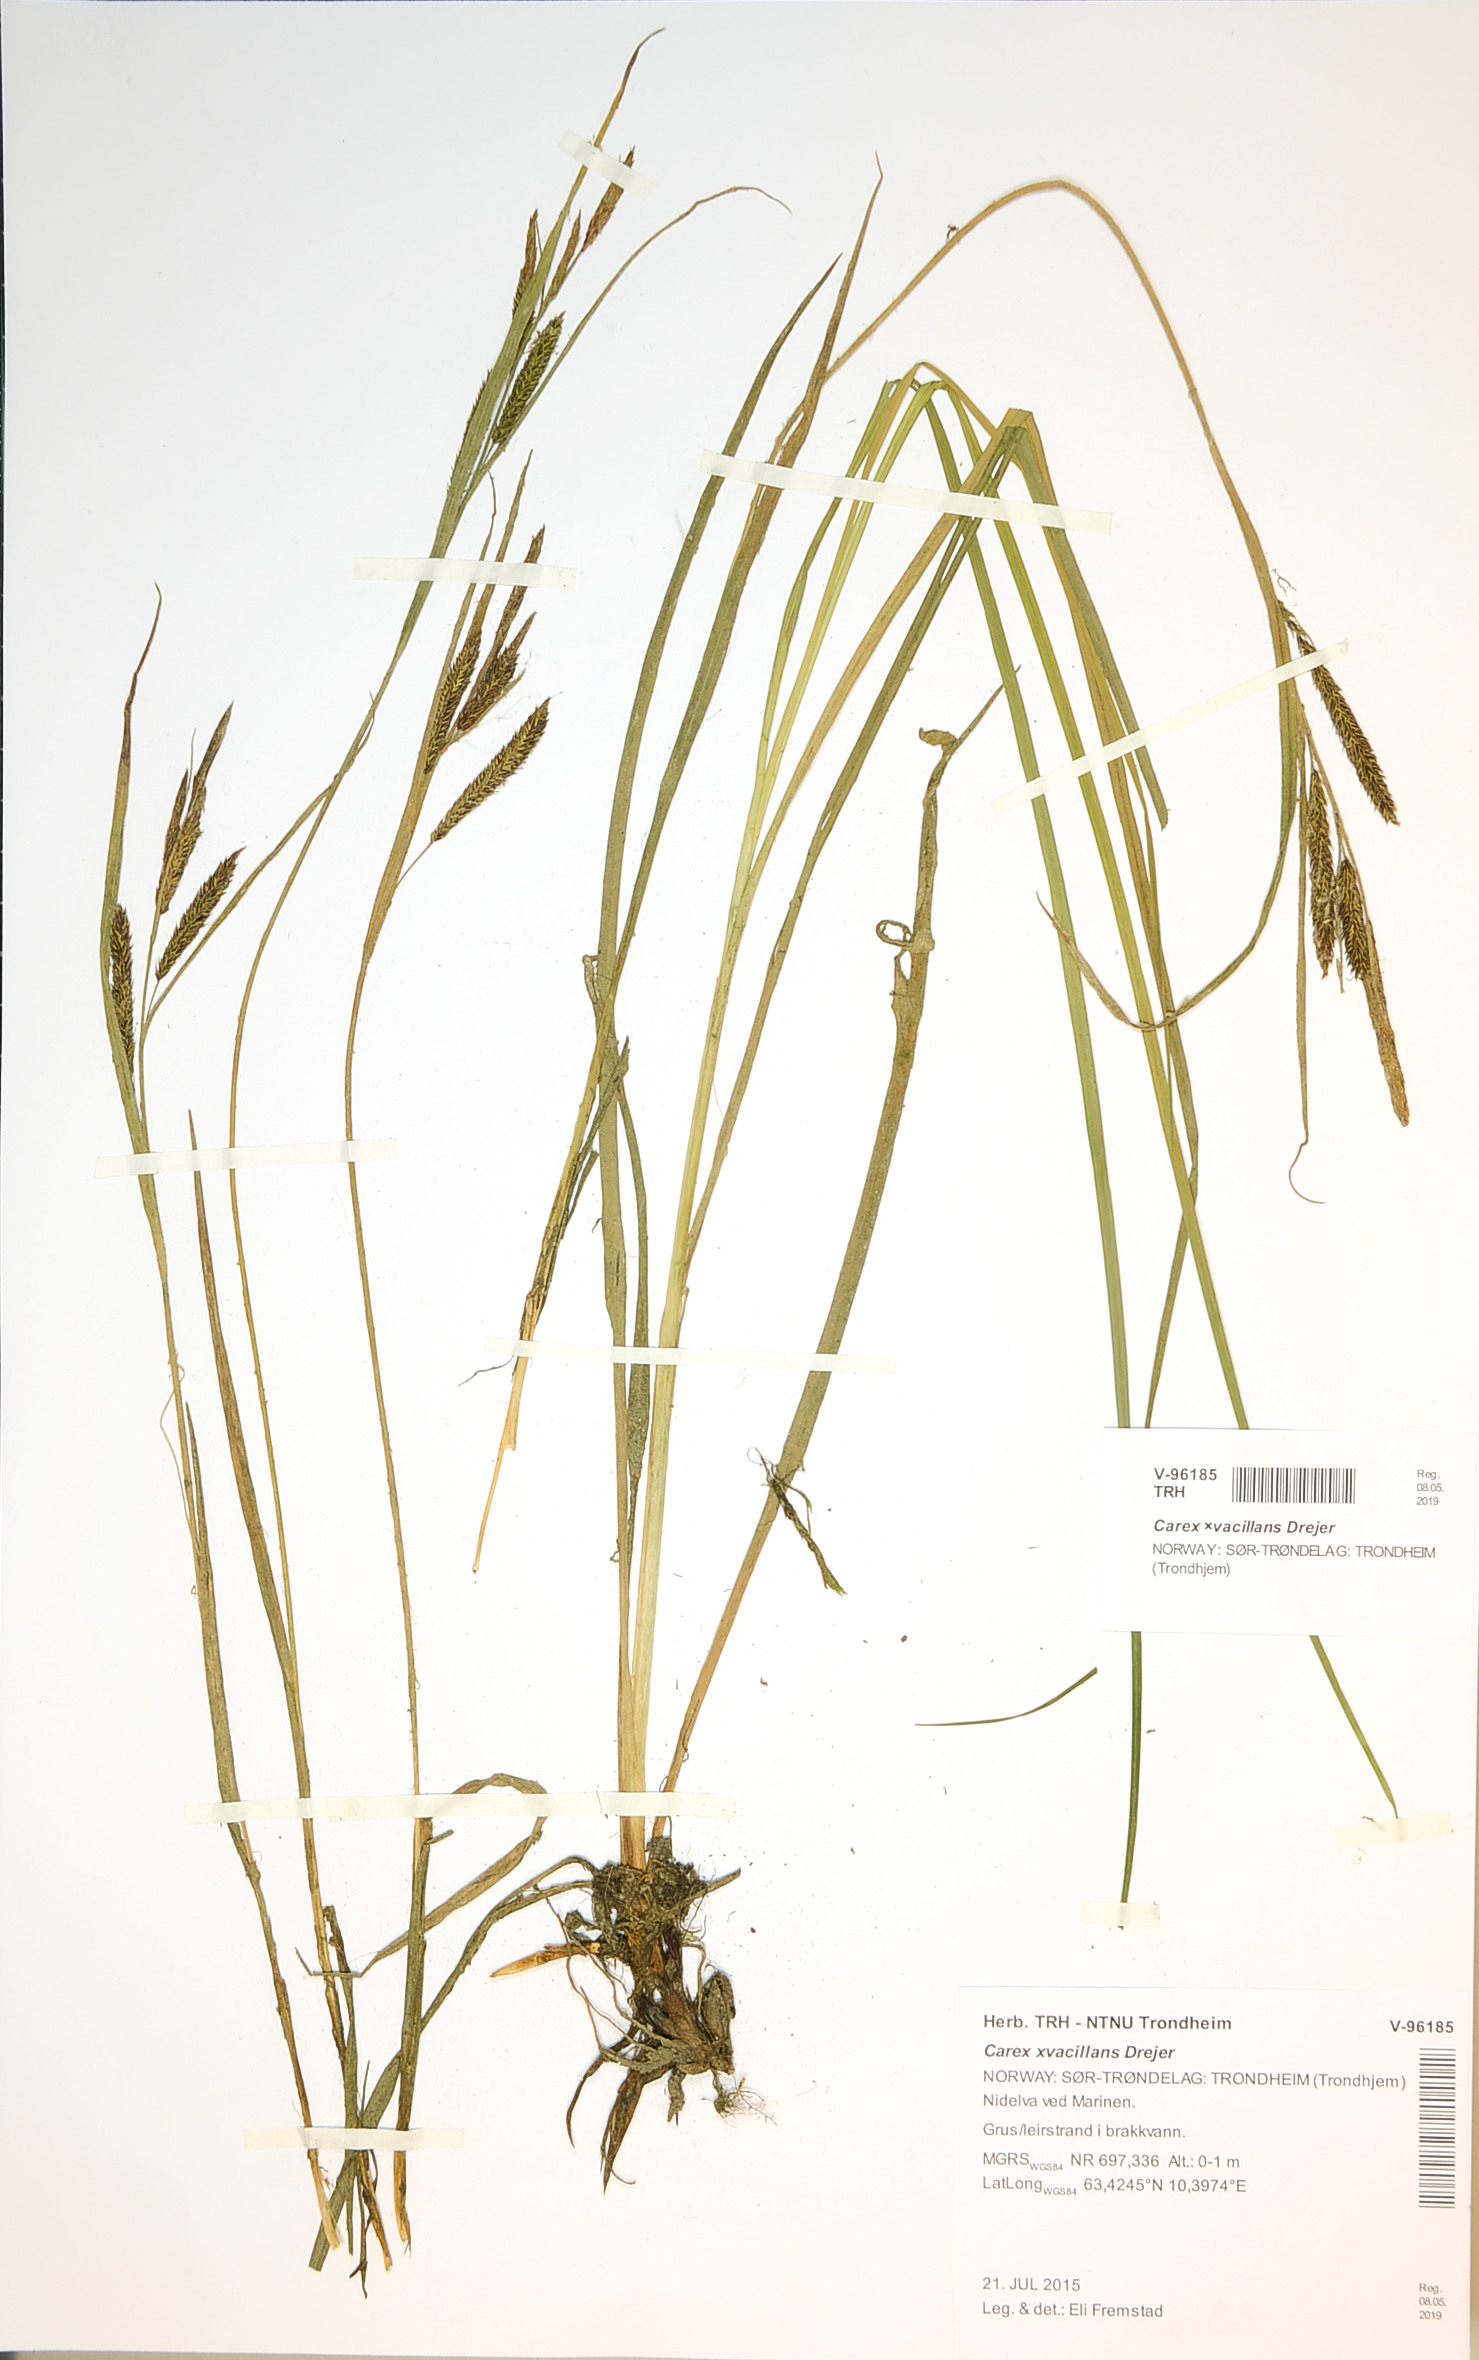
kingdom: Plantae
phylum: Tracheophyta
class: Liliopsida
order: Poales
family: Cyperaceae
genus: Carex
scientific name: Carex vacillans
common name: Sedge
